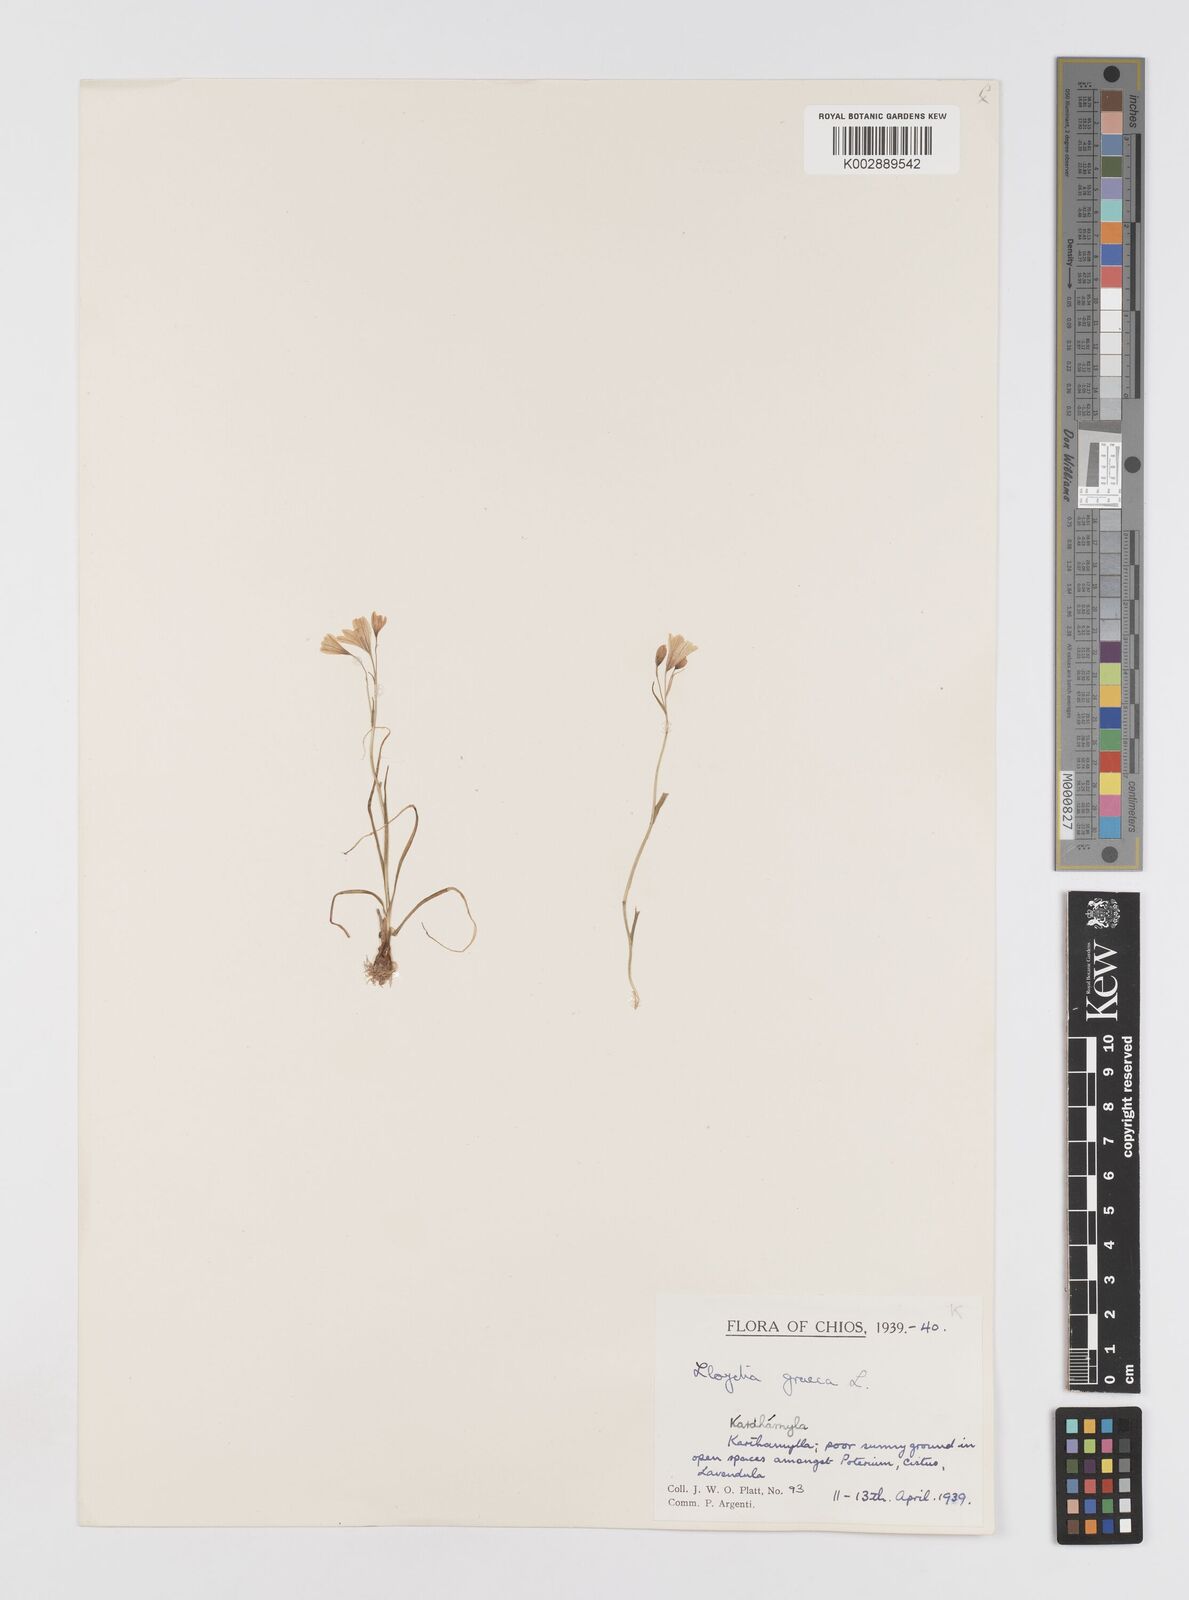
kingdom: Plantae
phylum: Tracheophyta
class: Liliopsida
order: Liliales
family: Liliaceae
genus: Gagea
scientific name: Gagea graeca
